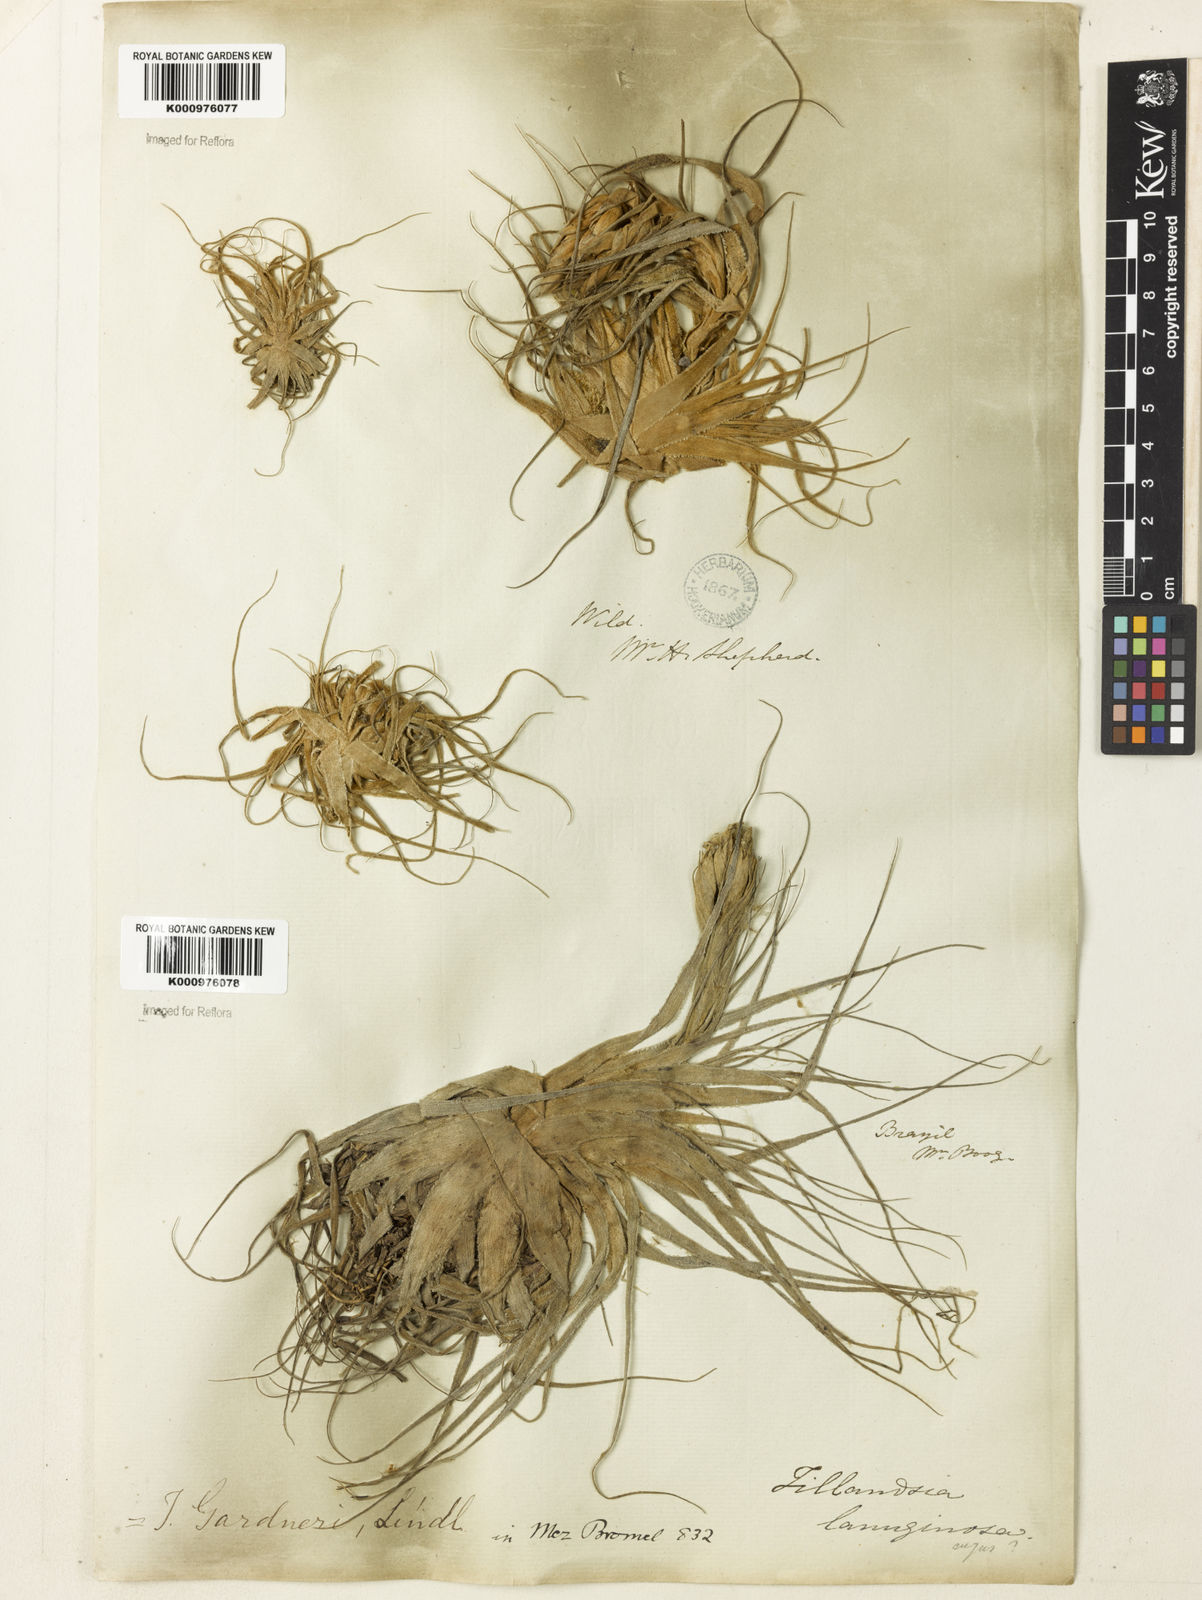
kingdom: Plantae
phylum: Tracheophyta
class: Liliopsida
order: Poales
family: Bromeliaceae
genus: Tillandsia
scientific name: Tillandsia gardneri
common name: Airplant
